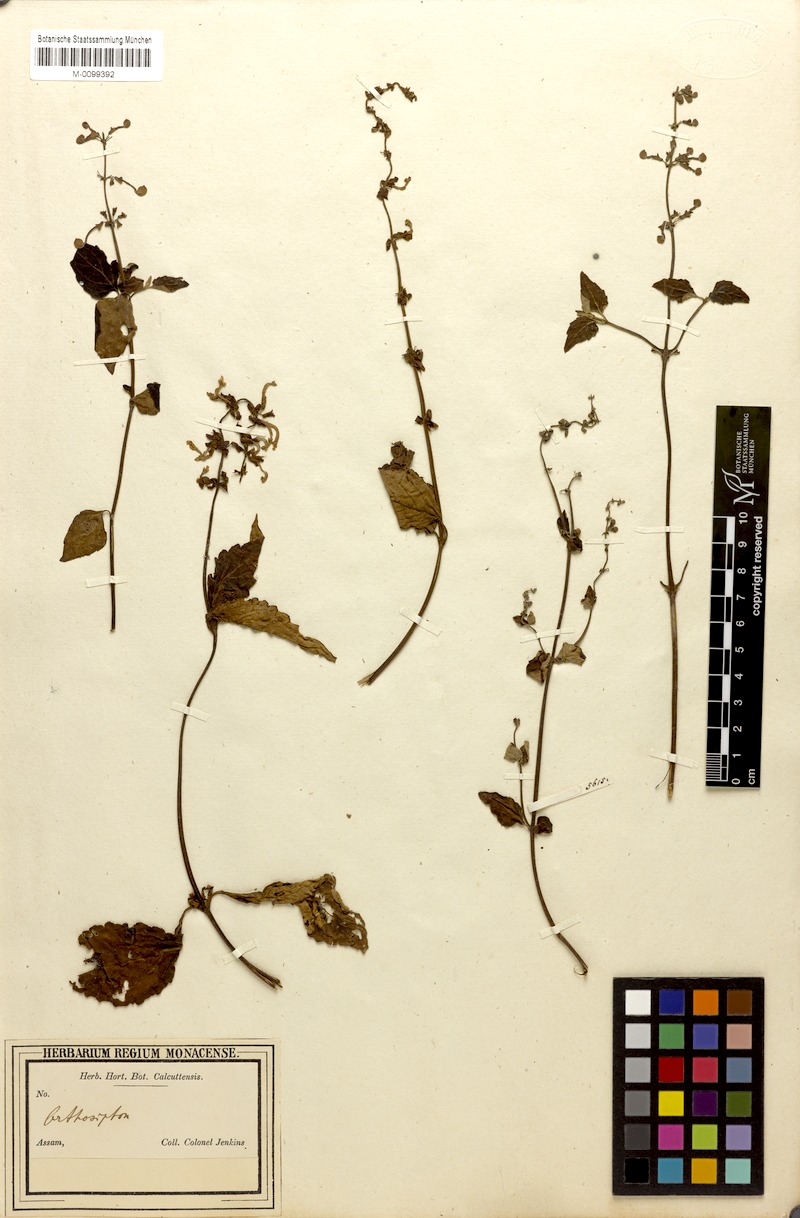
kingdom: Plantae
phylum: Tracheophyta
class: Magnoliopsida
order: Lamiales
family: Lamiaceae
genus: Orthosiphon
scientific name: Orthosiphon incurvus
